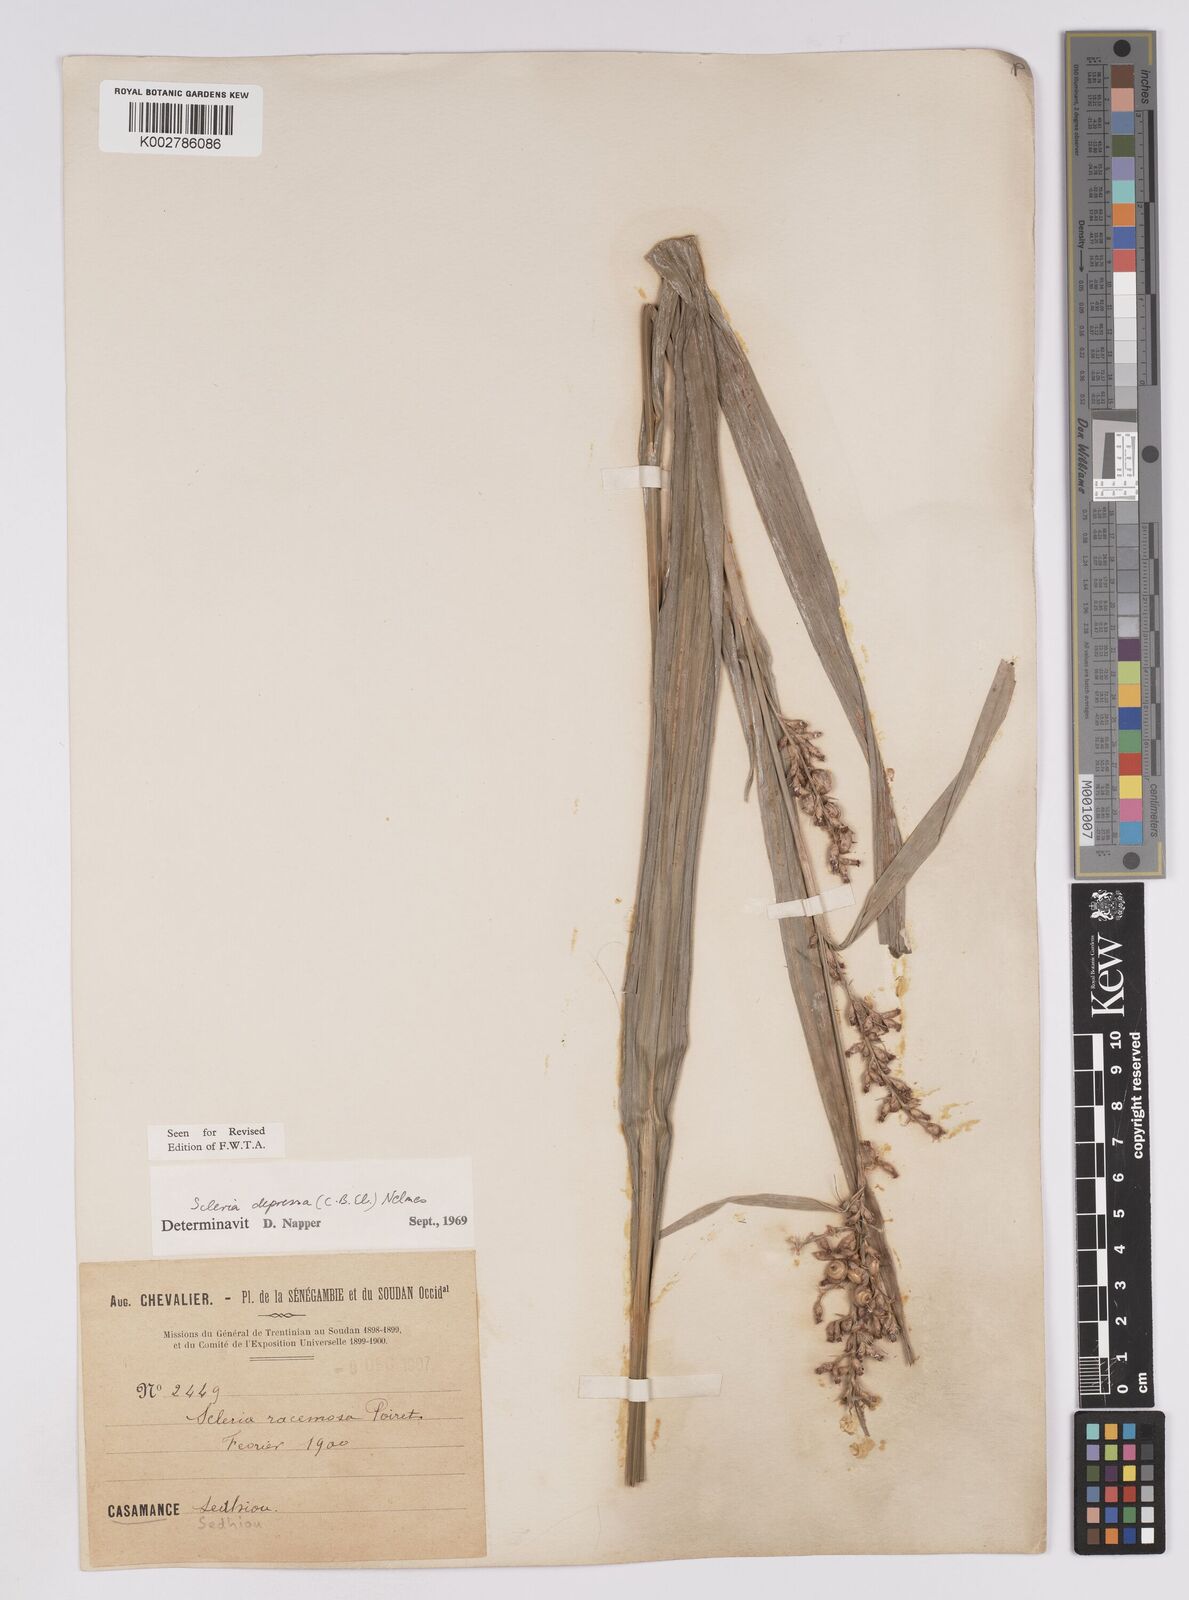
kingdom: Plantae
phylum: Tracheophyta
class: Liliopsida
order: Poales
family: Cyperaceae
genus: Scleria
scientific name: Scleria depressa
